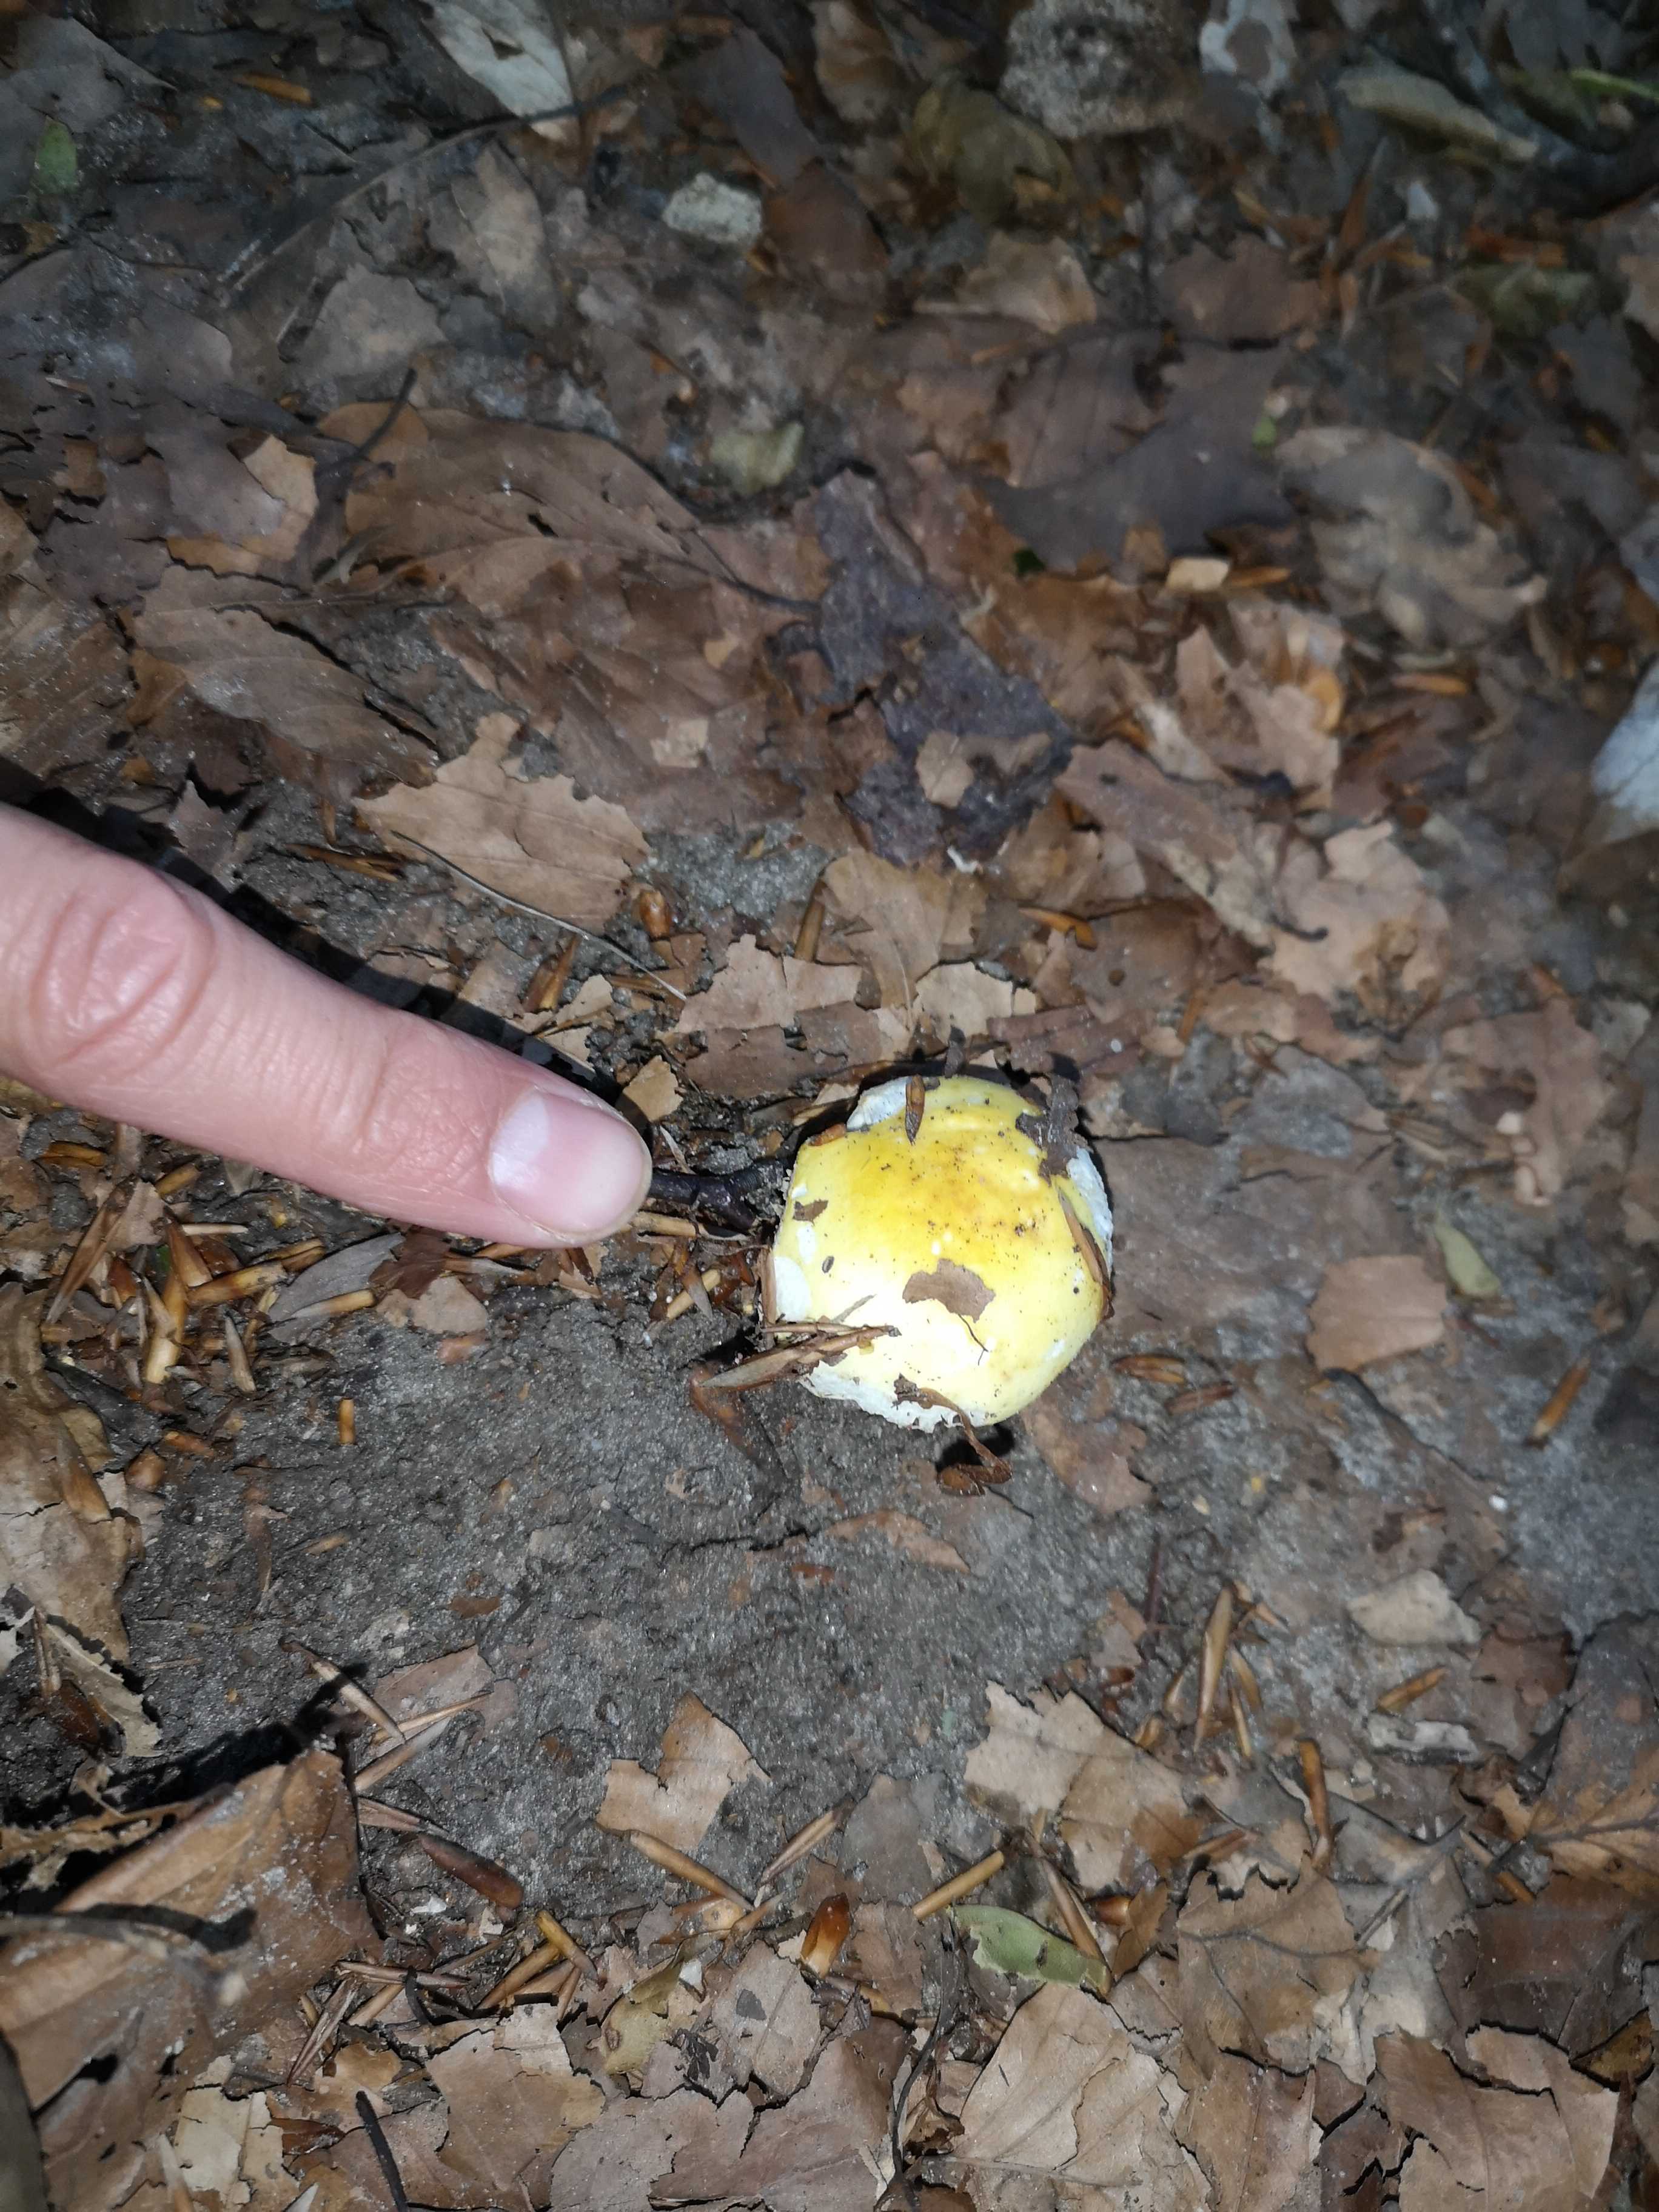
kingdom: Fungi
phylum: Basidiomycota
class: Agaricomycetes
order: Russulales
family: Russulaceae
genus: Russula
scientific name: Russula solaris
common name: sol-skørhat
